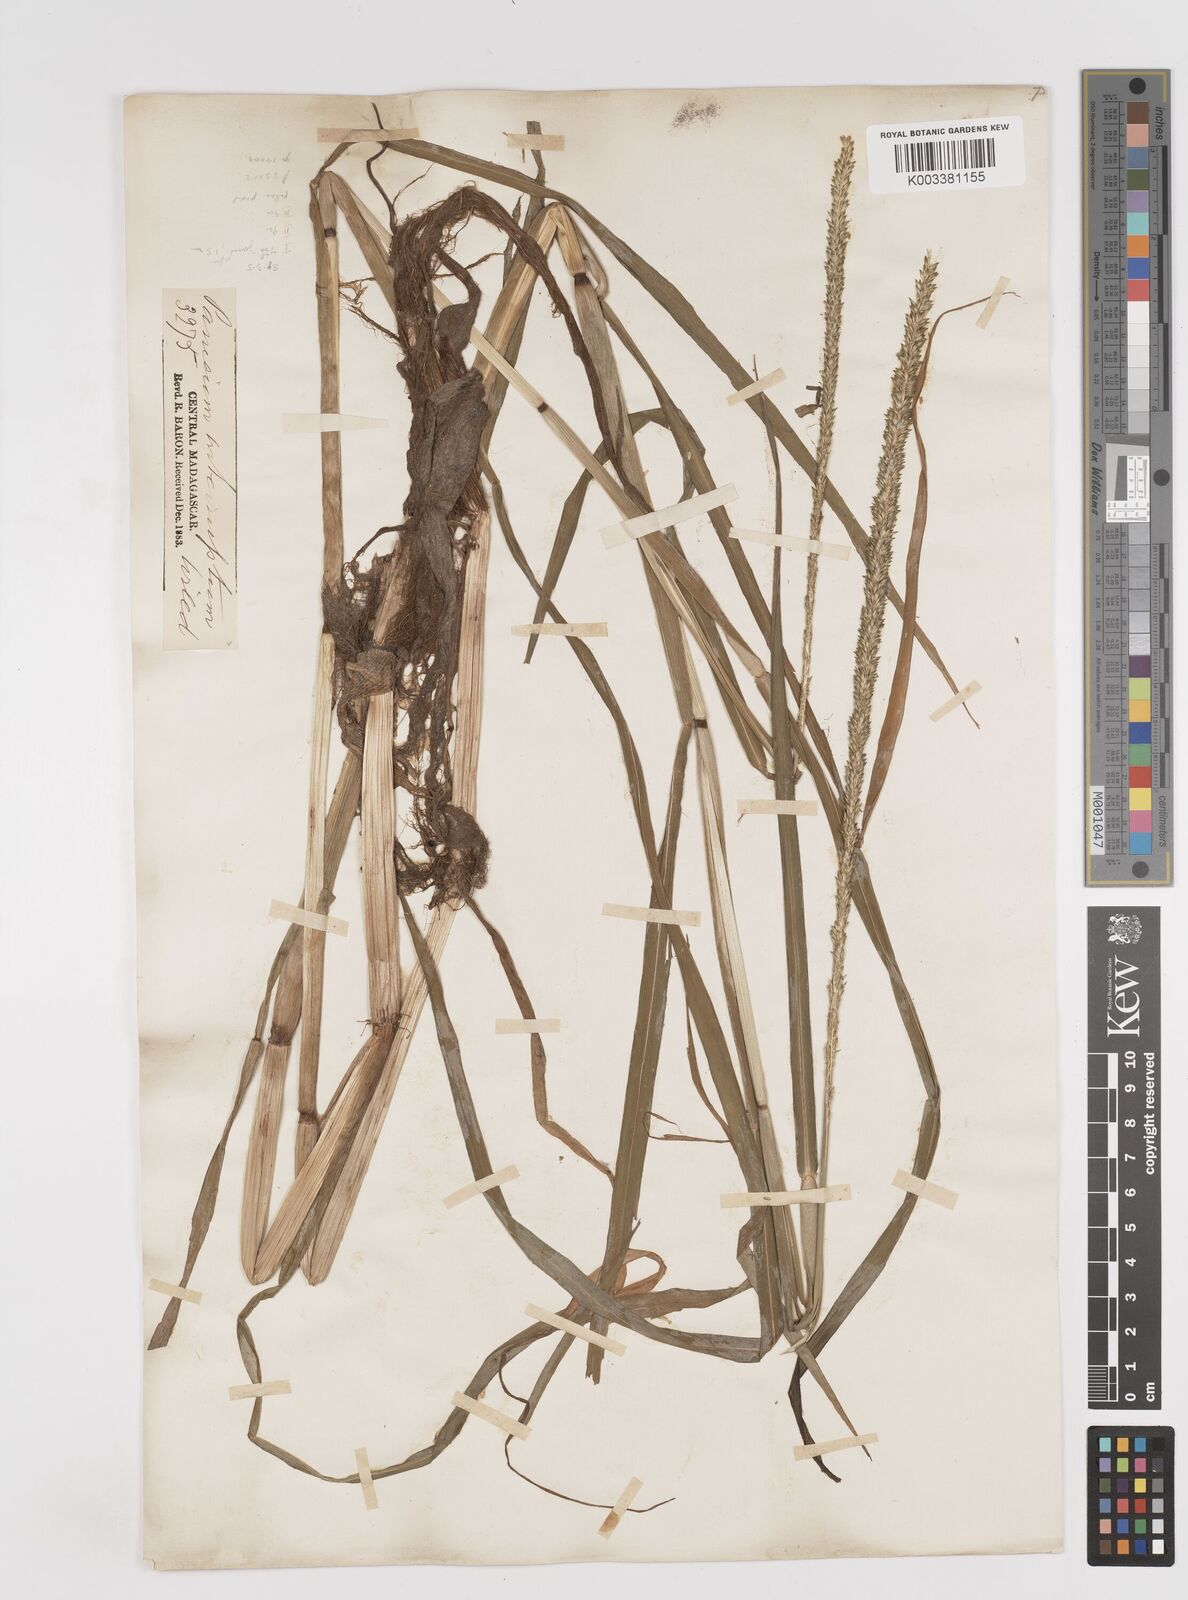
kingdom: Plantae
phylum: Tracheophyta
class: Liliopsida
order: Poales
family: Poaceae
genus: Sacciolepis
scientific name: Sacciolepis africana
